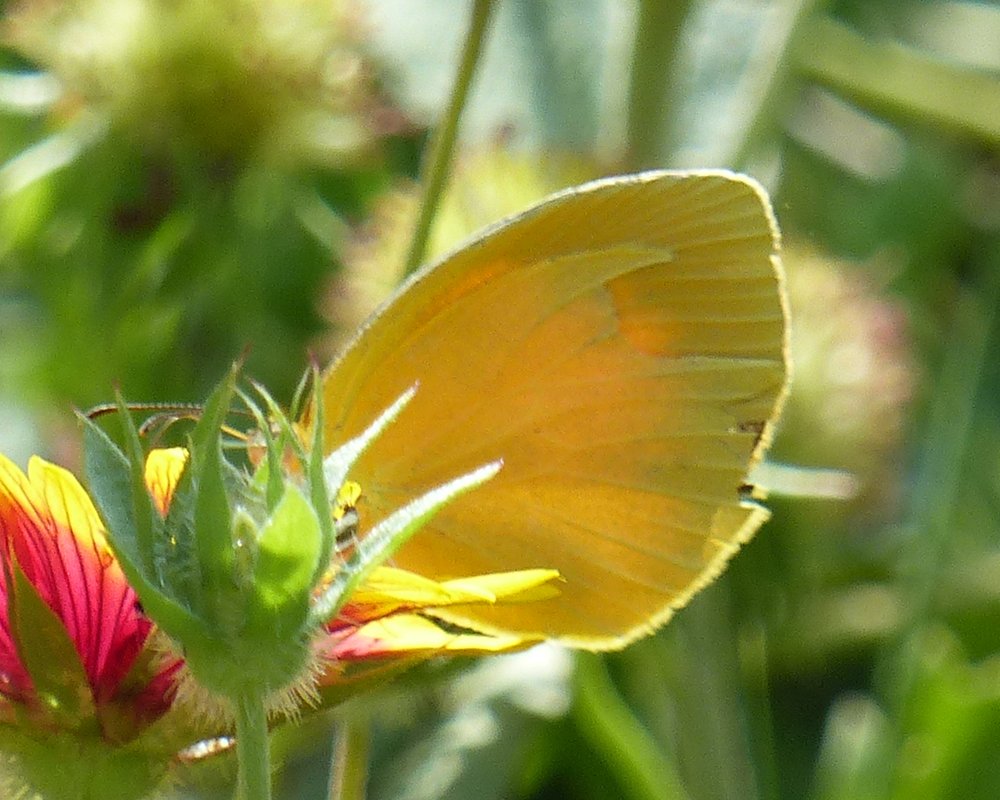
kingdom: Animalia
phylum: Arthropoda
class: Insecta
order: Lepidoptera
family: Pieridae
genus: Abaeis
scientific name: Abaeis nicippe
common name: Sleepy Orange
